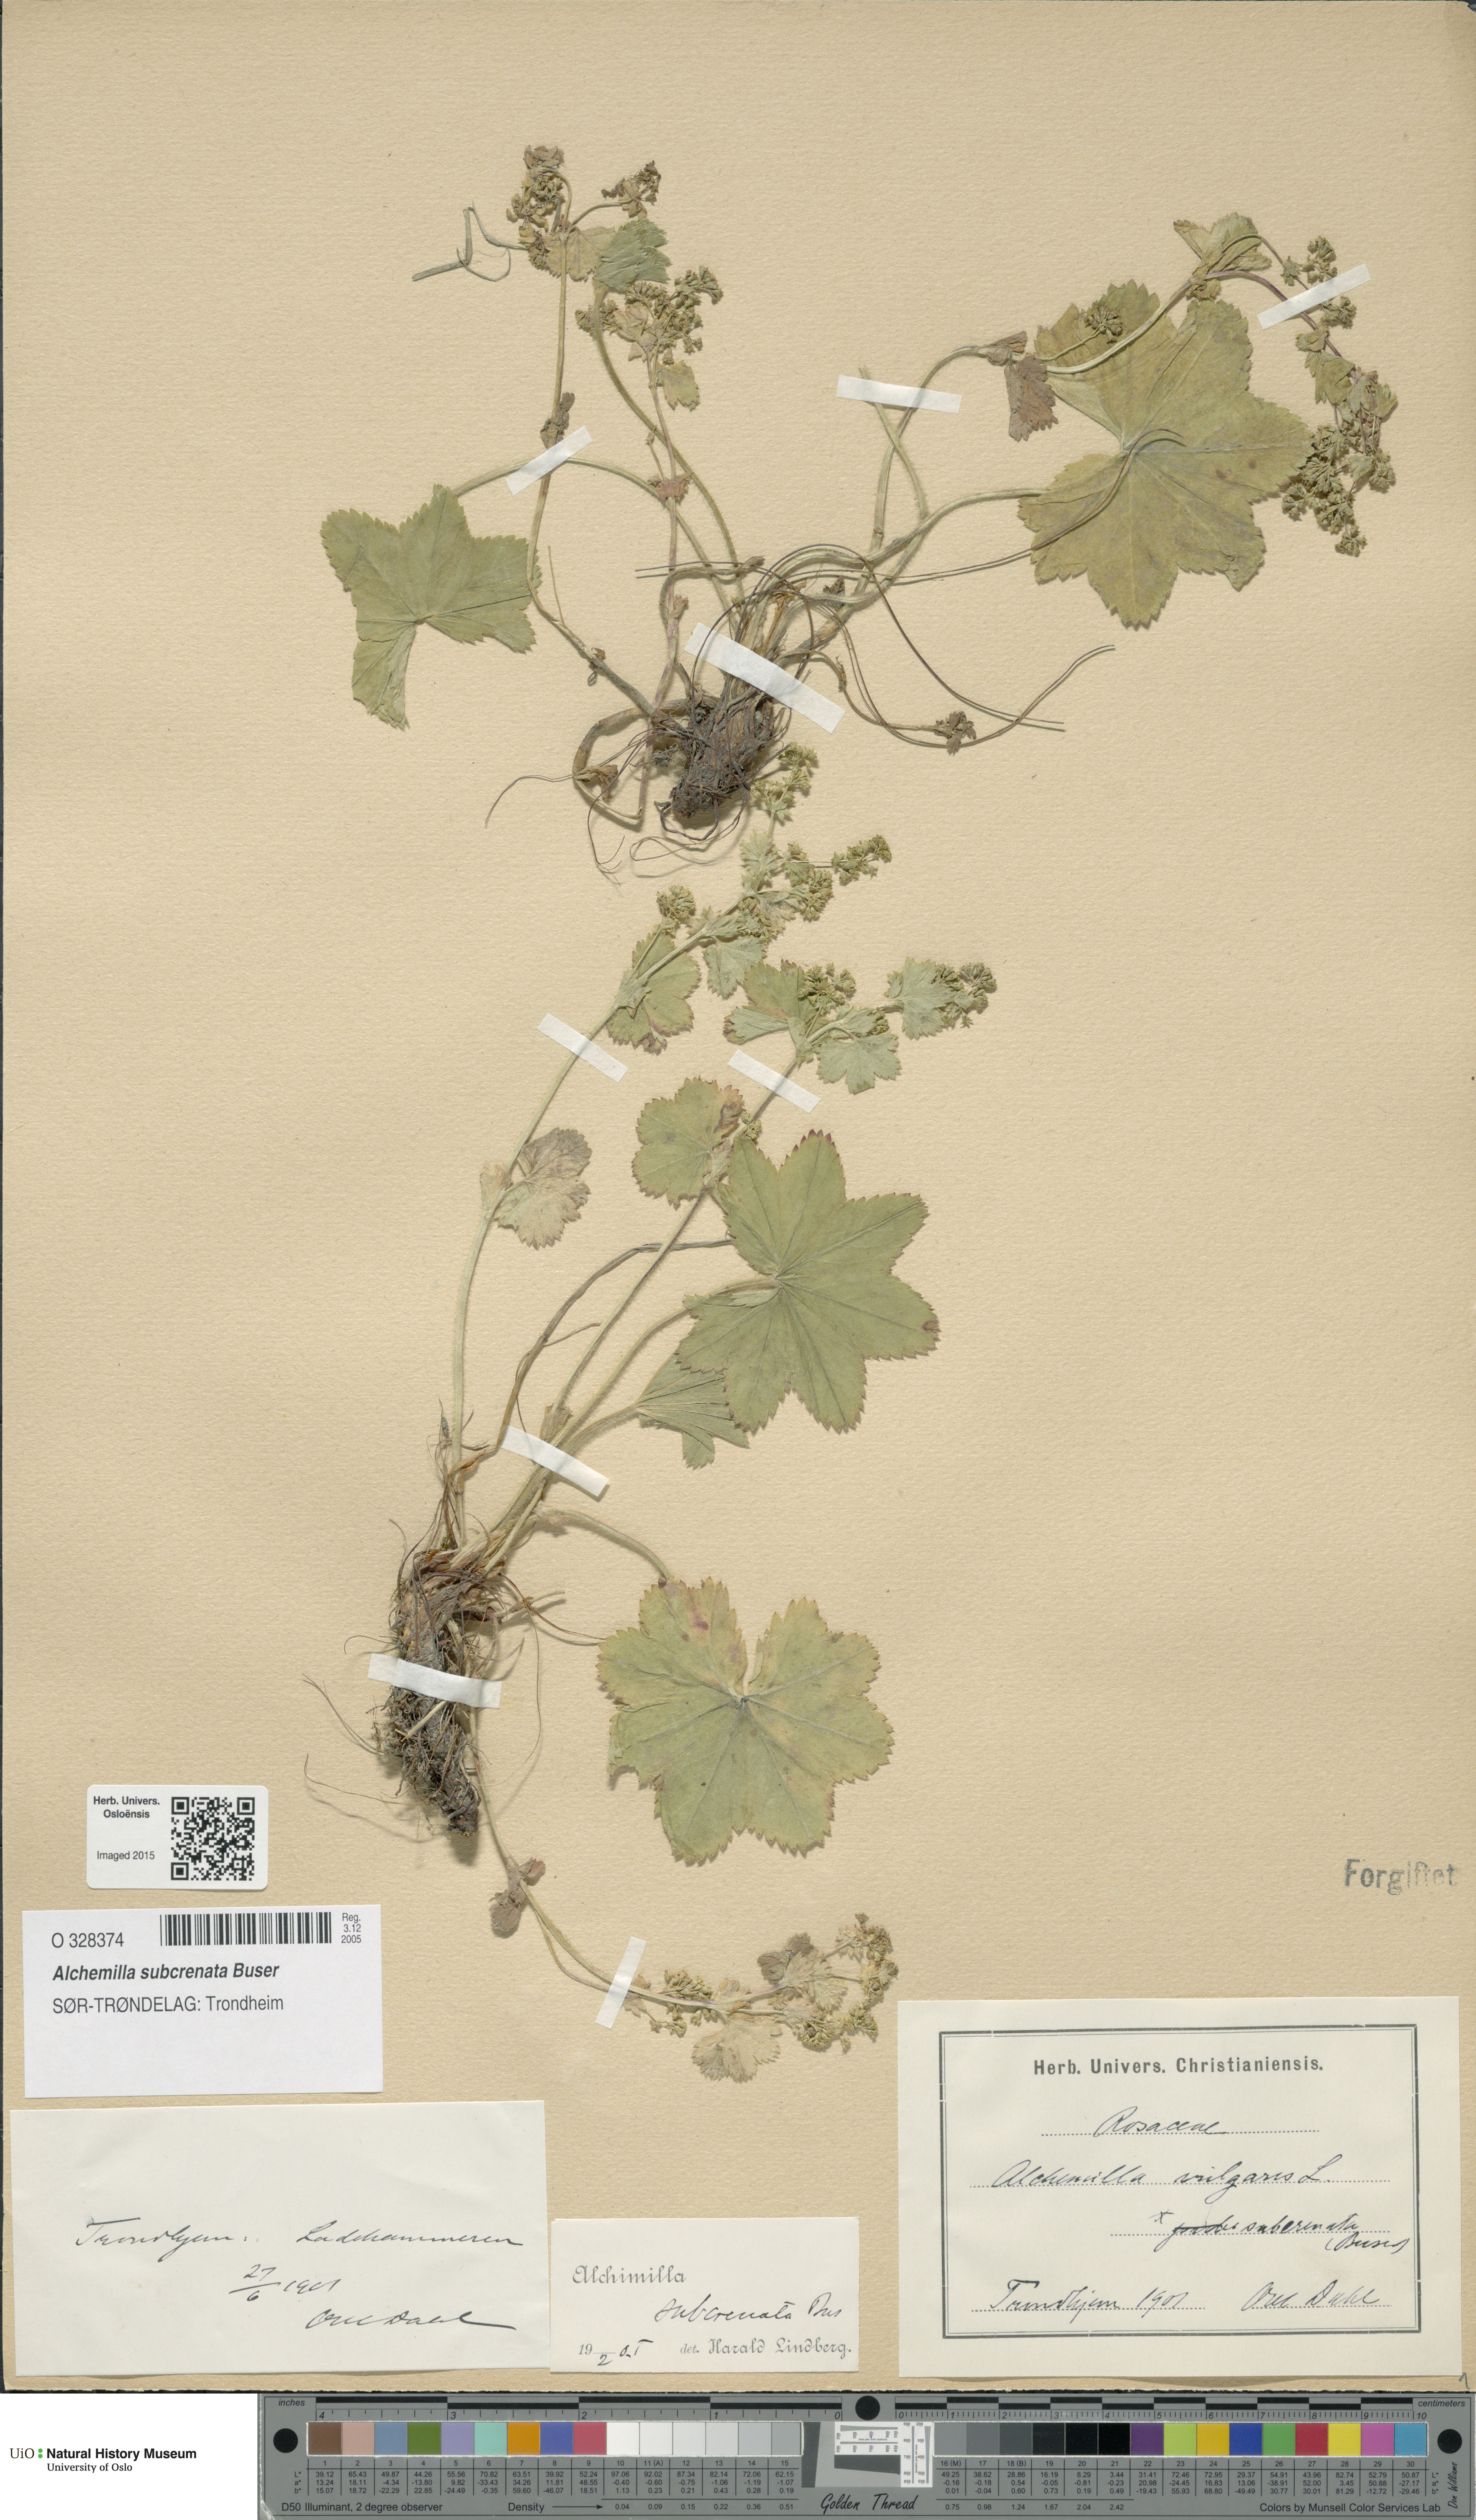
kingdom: Plantae
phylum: Tracheophyta
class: Magnoliopsida
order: Rosales
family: Rosaceae
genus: Alchemilla
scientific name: Alchemilla subcrenata
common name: Broadtooth lady's mantle
